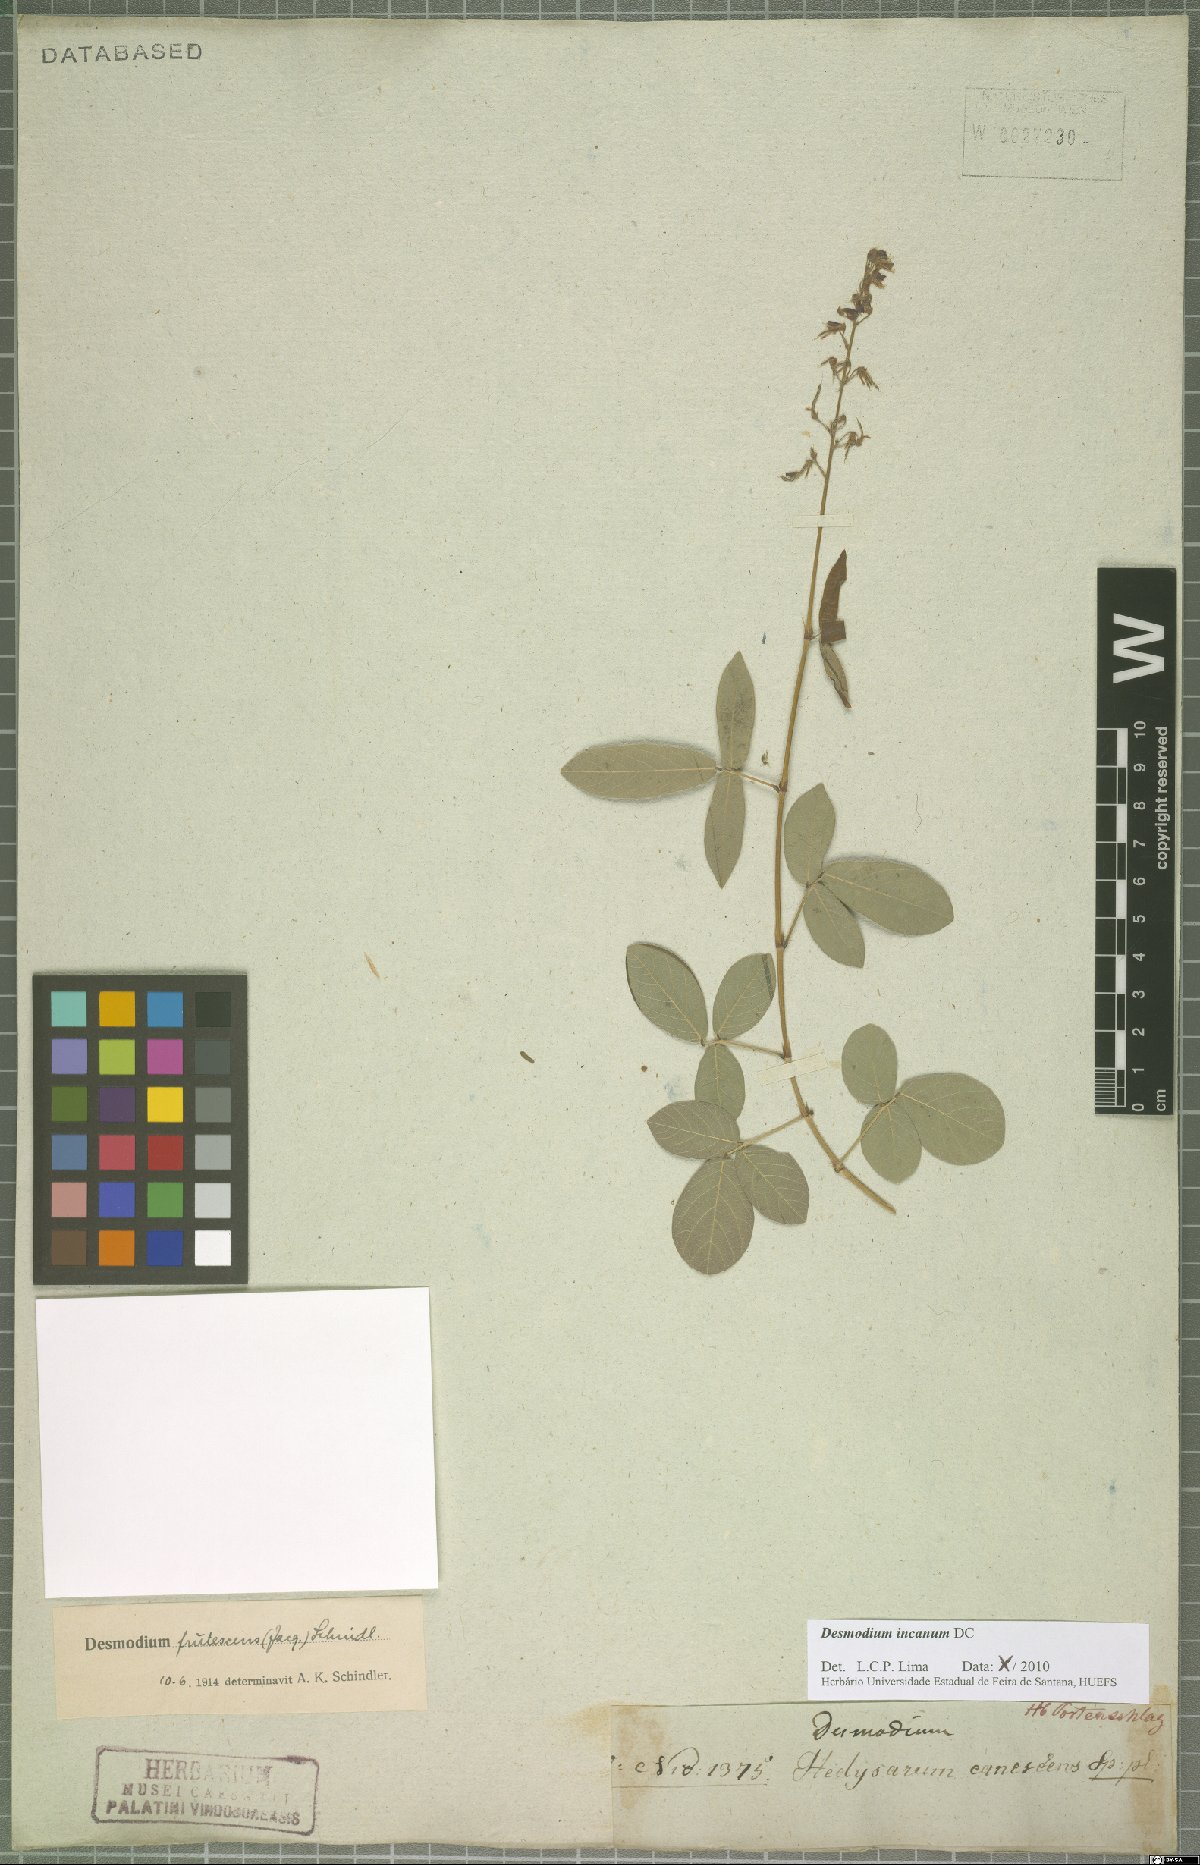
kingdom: Plantae
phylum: Tracheophyta
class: Magnoliopsida
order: Fabales
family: Fabaceae
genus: Desmodium
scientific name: Desmodium incanum
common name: Tickclover
